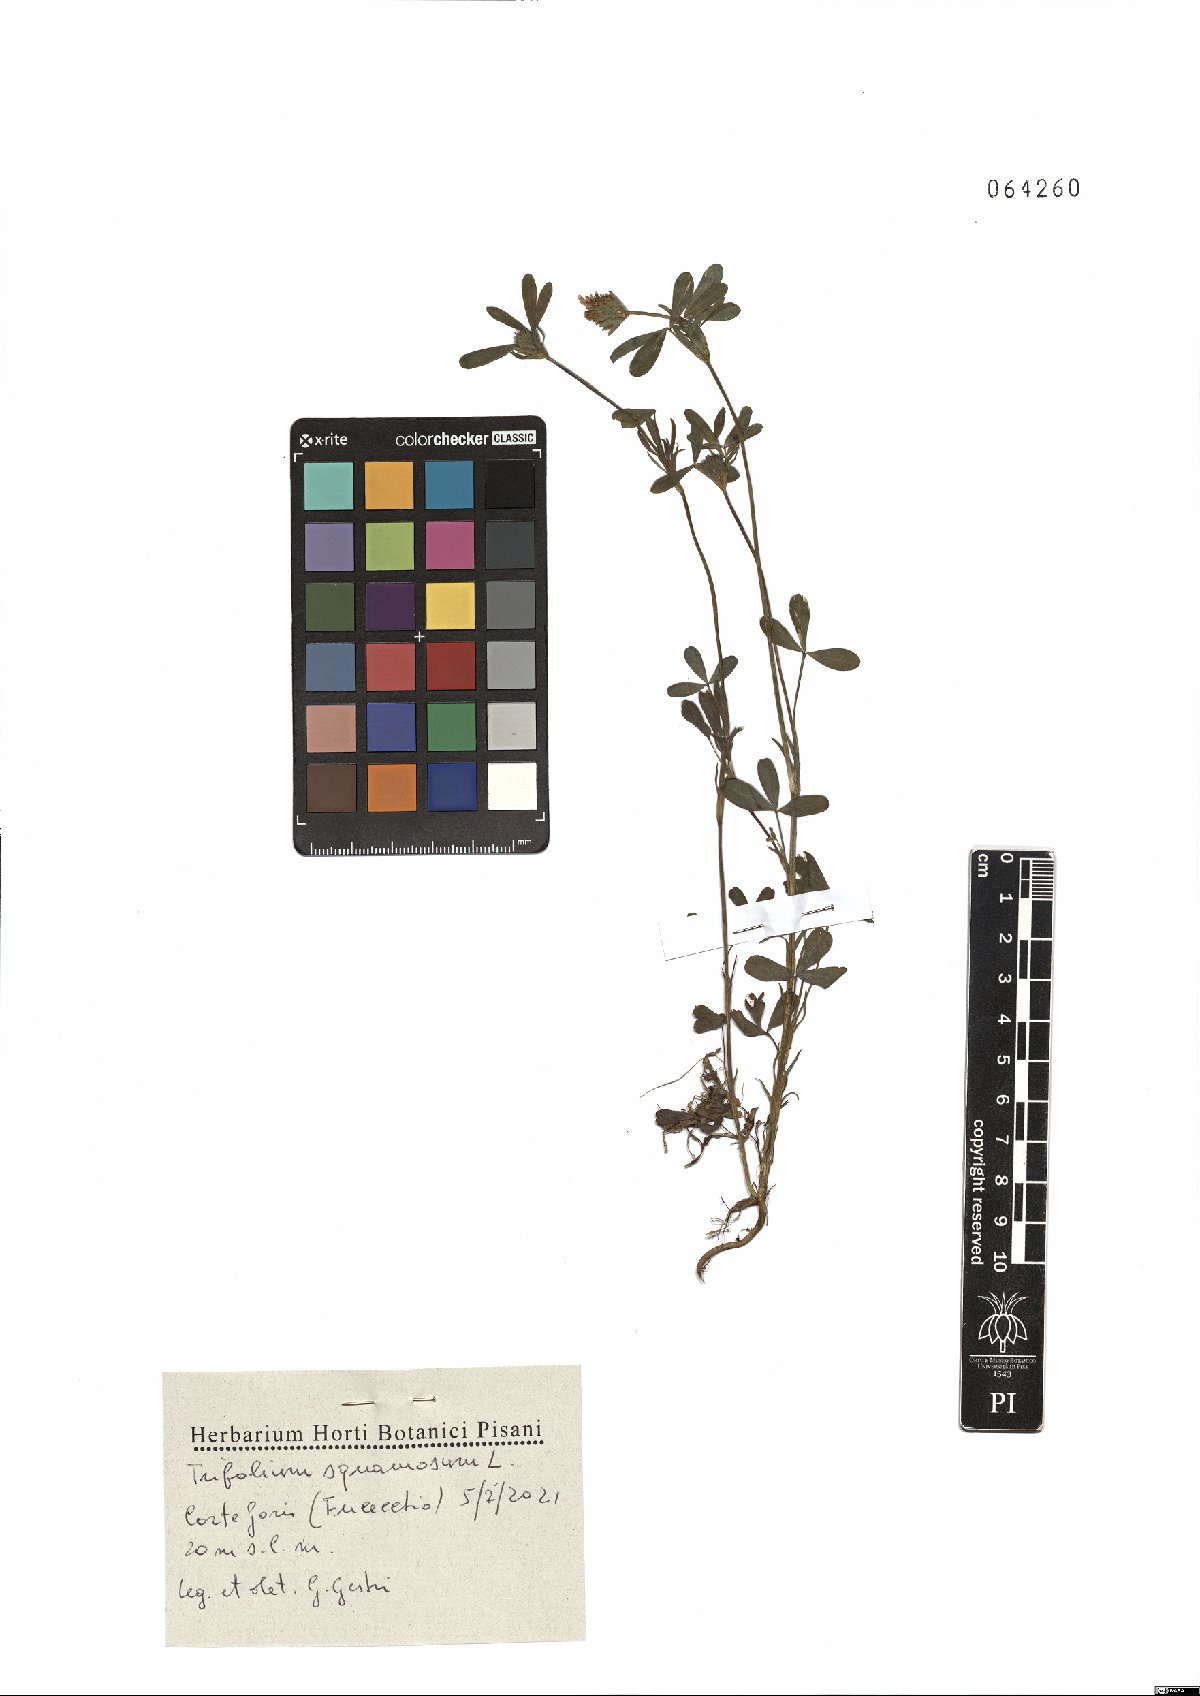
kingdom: Plantae
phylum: Tracheophyta
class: Magnoliopsida
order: Fabales
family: Fabaceae
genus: Trifolium
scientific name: Trifolium squamosum
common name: Sea clover
